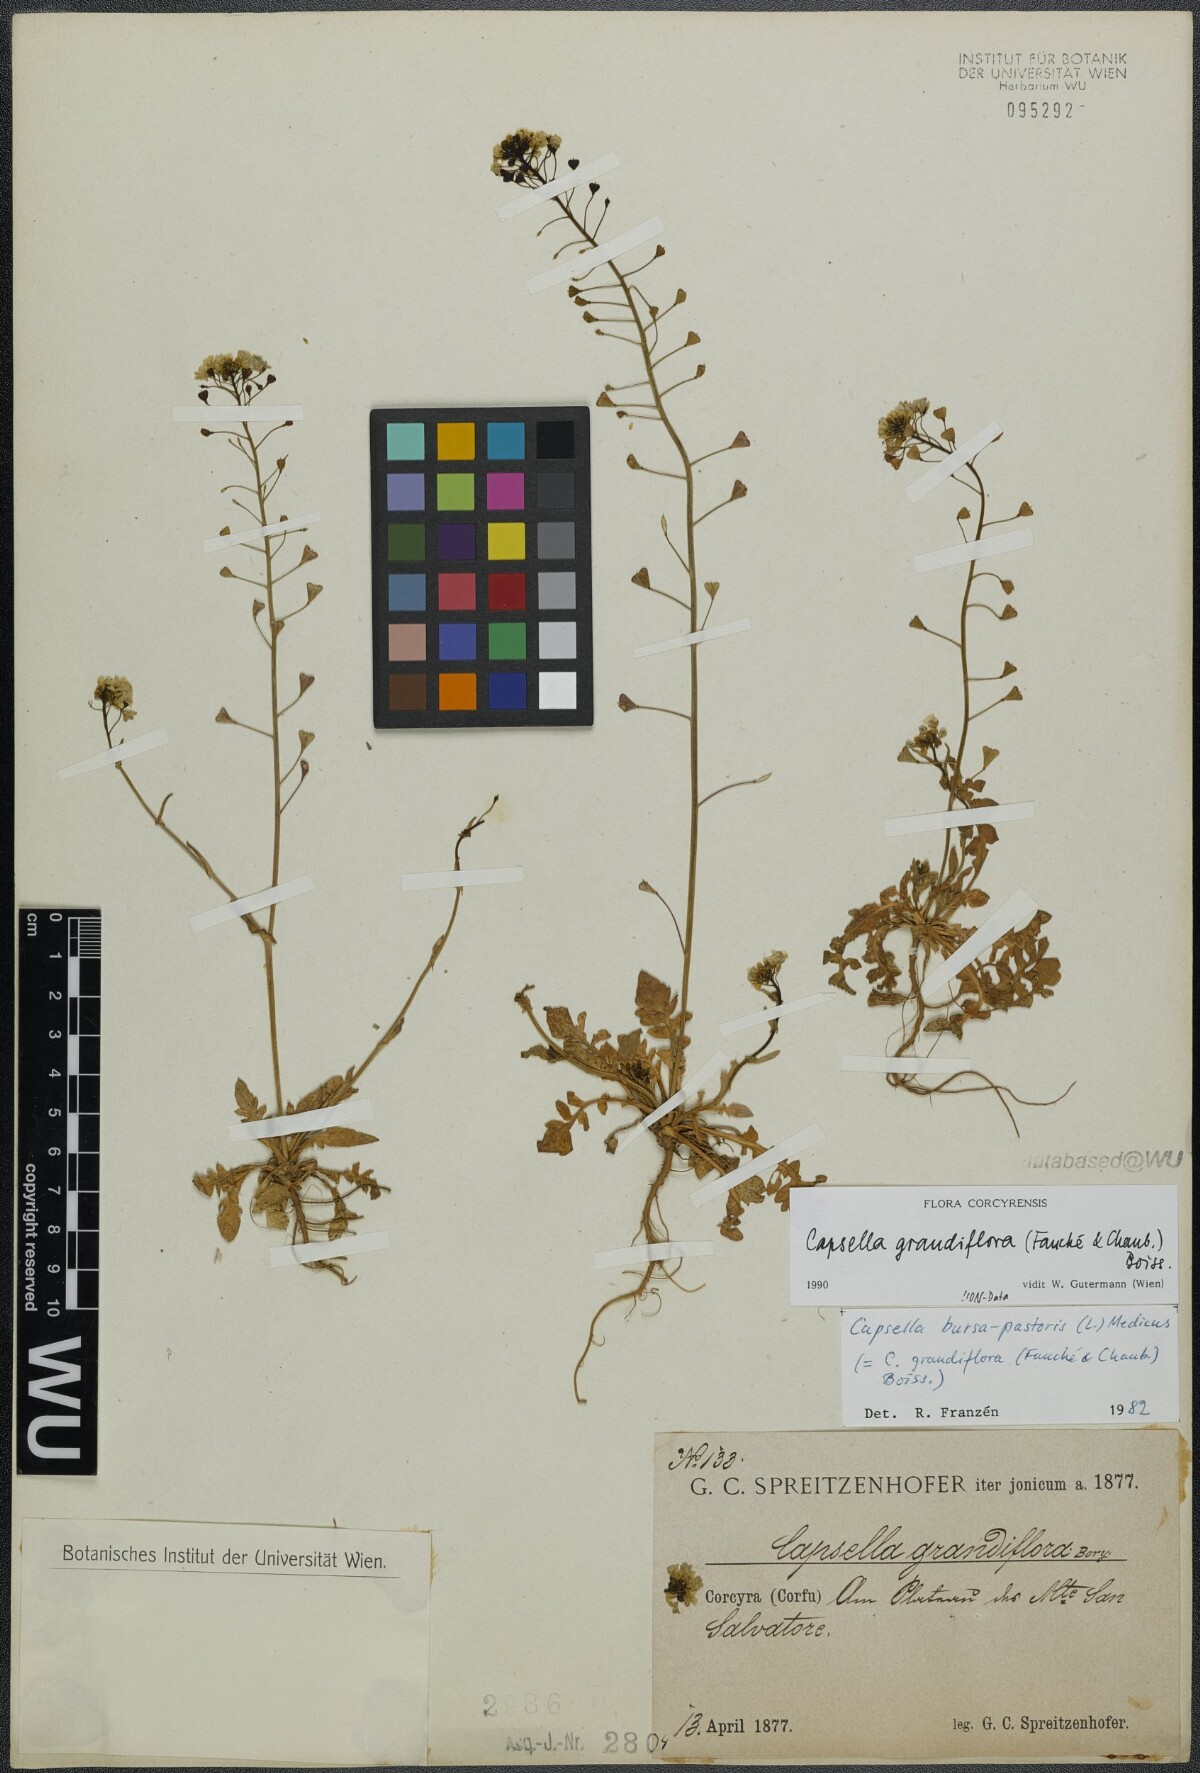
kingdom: Plantae
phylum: Tracheophyta
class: Magnoliopsida
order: Brassicales
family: Brassicaceae
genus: Capsella
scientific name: Capsella grandiflora
